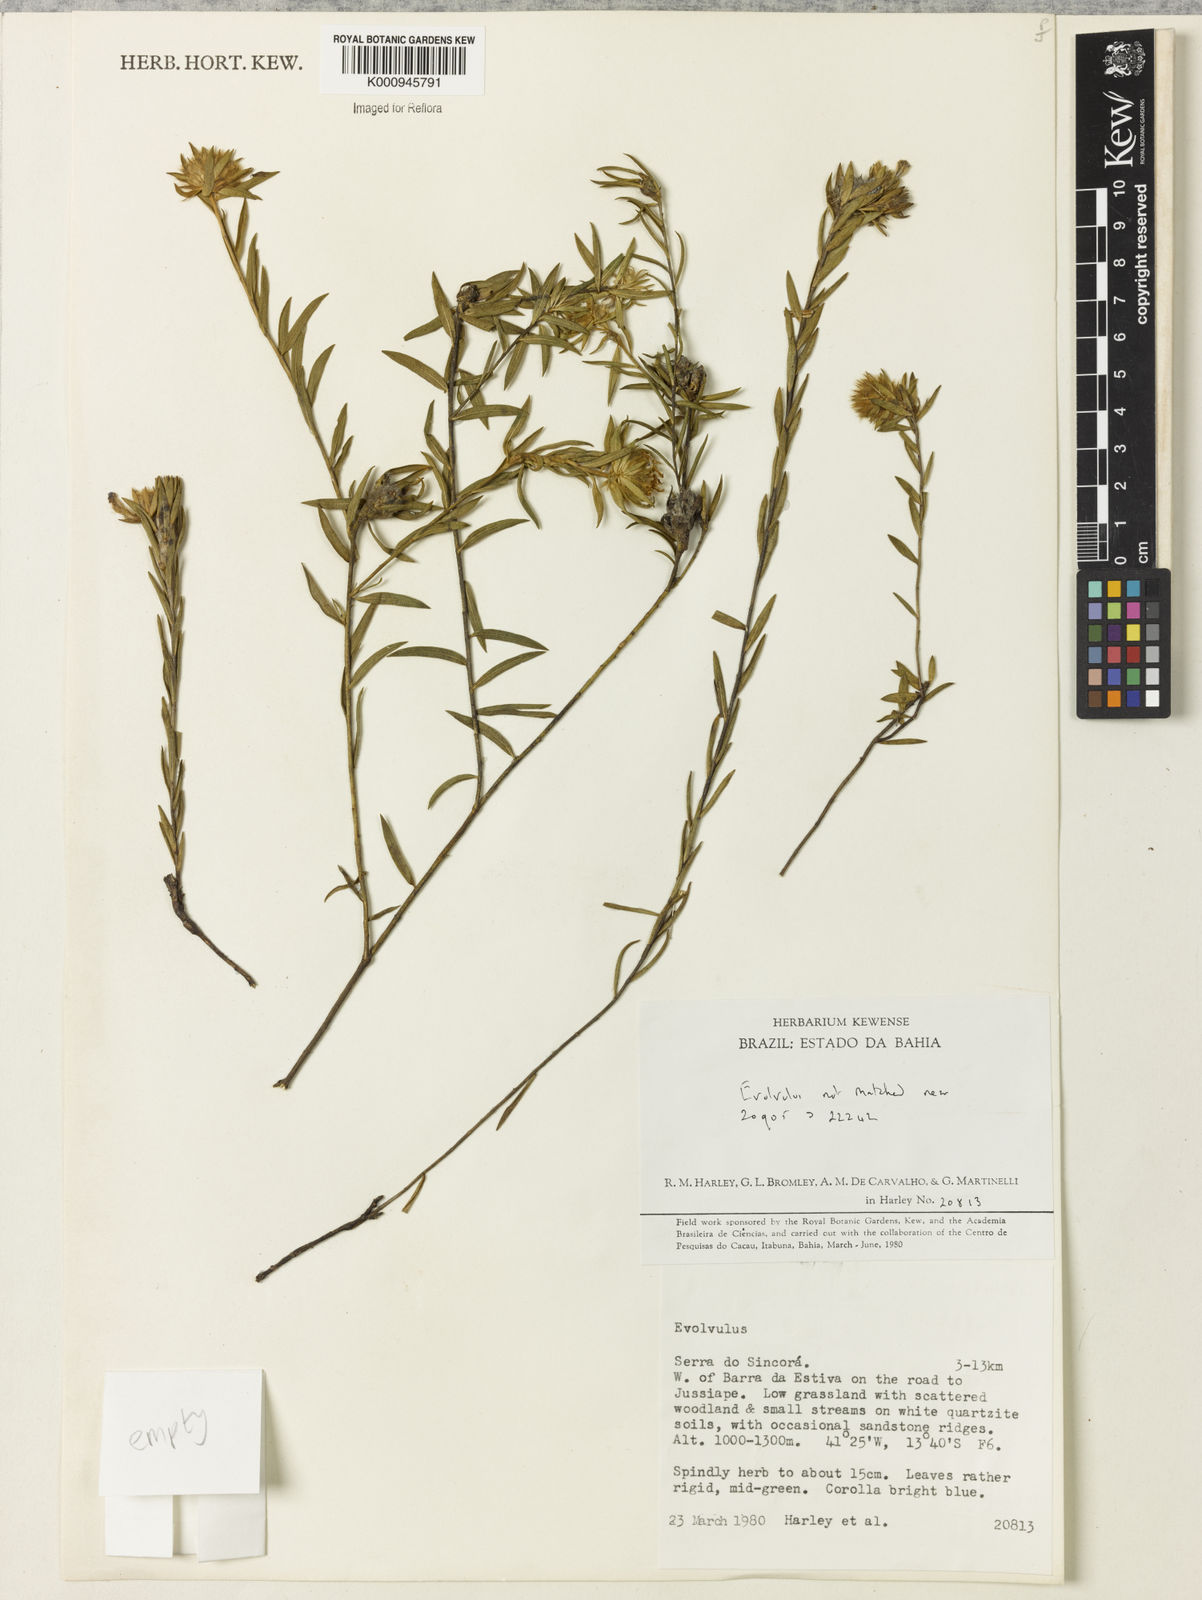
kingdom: Plantae
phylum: Tracheophyta
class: Magnoliopsida
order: Solanales
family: Convolvulaceae
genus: Evolvulus
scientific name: Evolvulus
